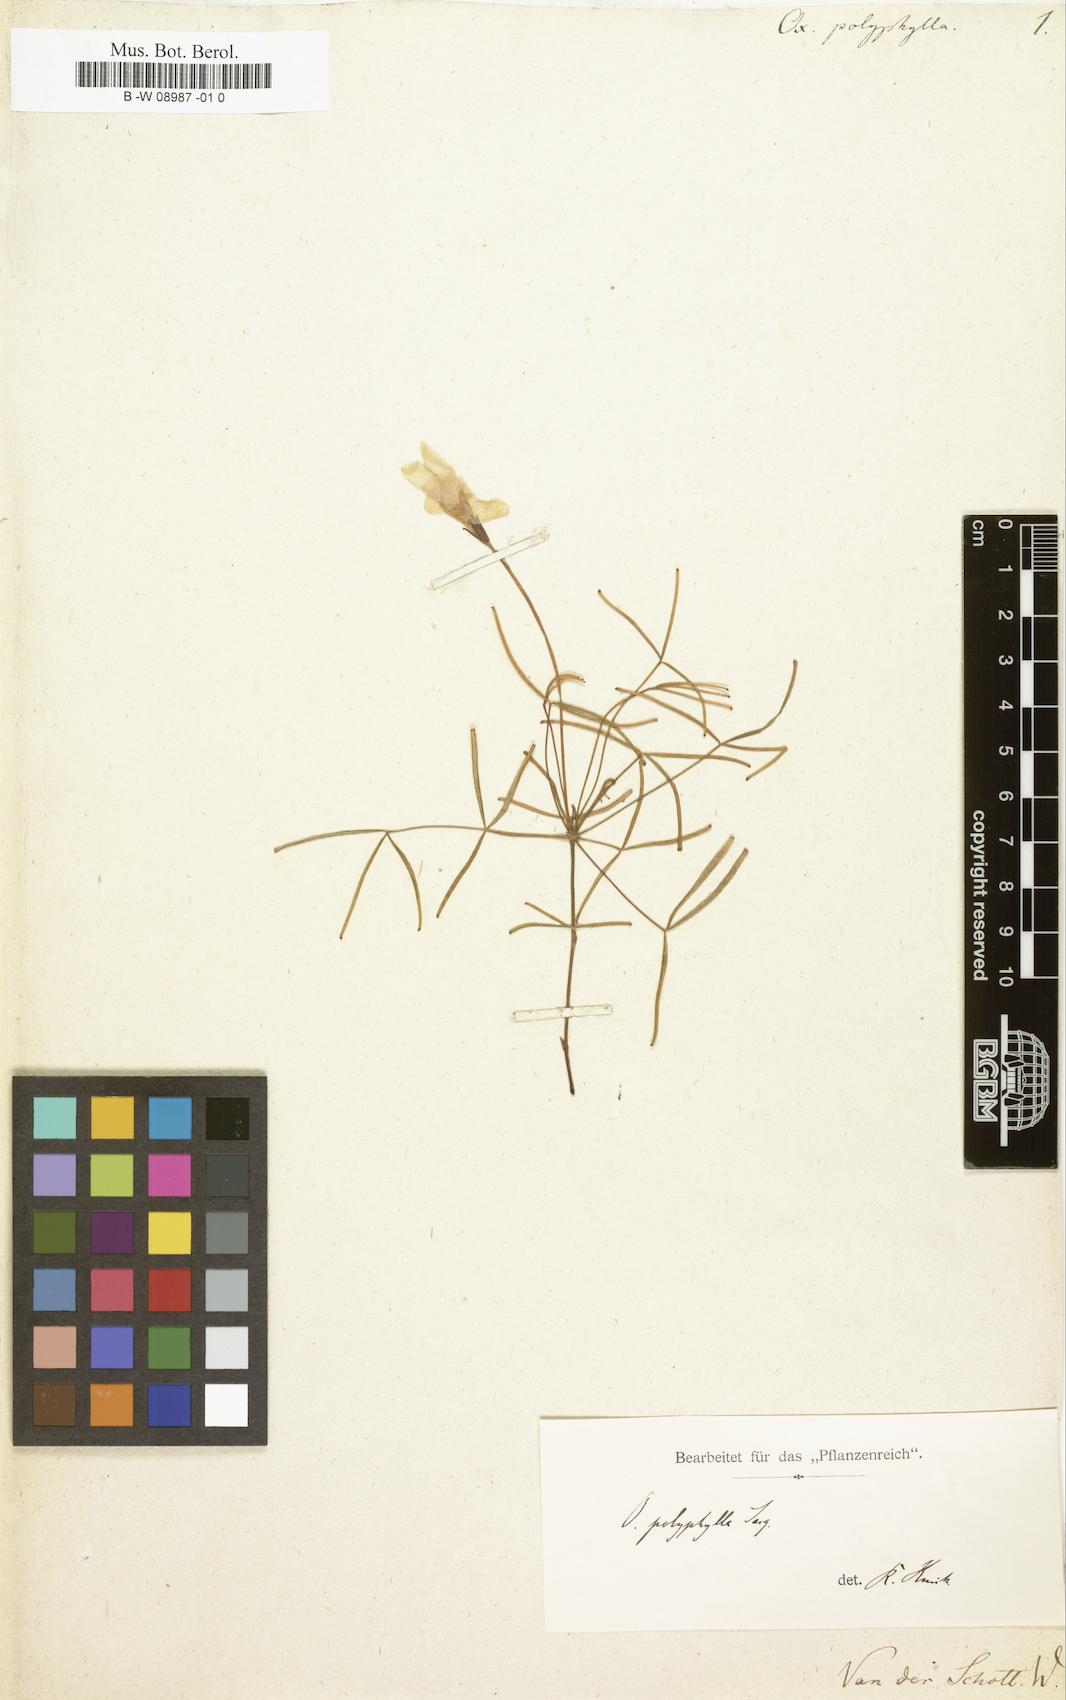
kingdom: Plantae
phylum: Tracheophyta
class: Magnoliopsida
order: Oxalidales
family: Oxalidaceae
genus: Oxalis
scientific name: Oxalis polyphylla
